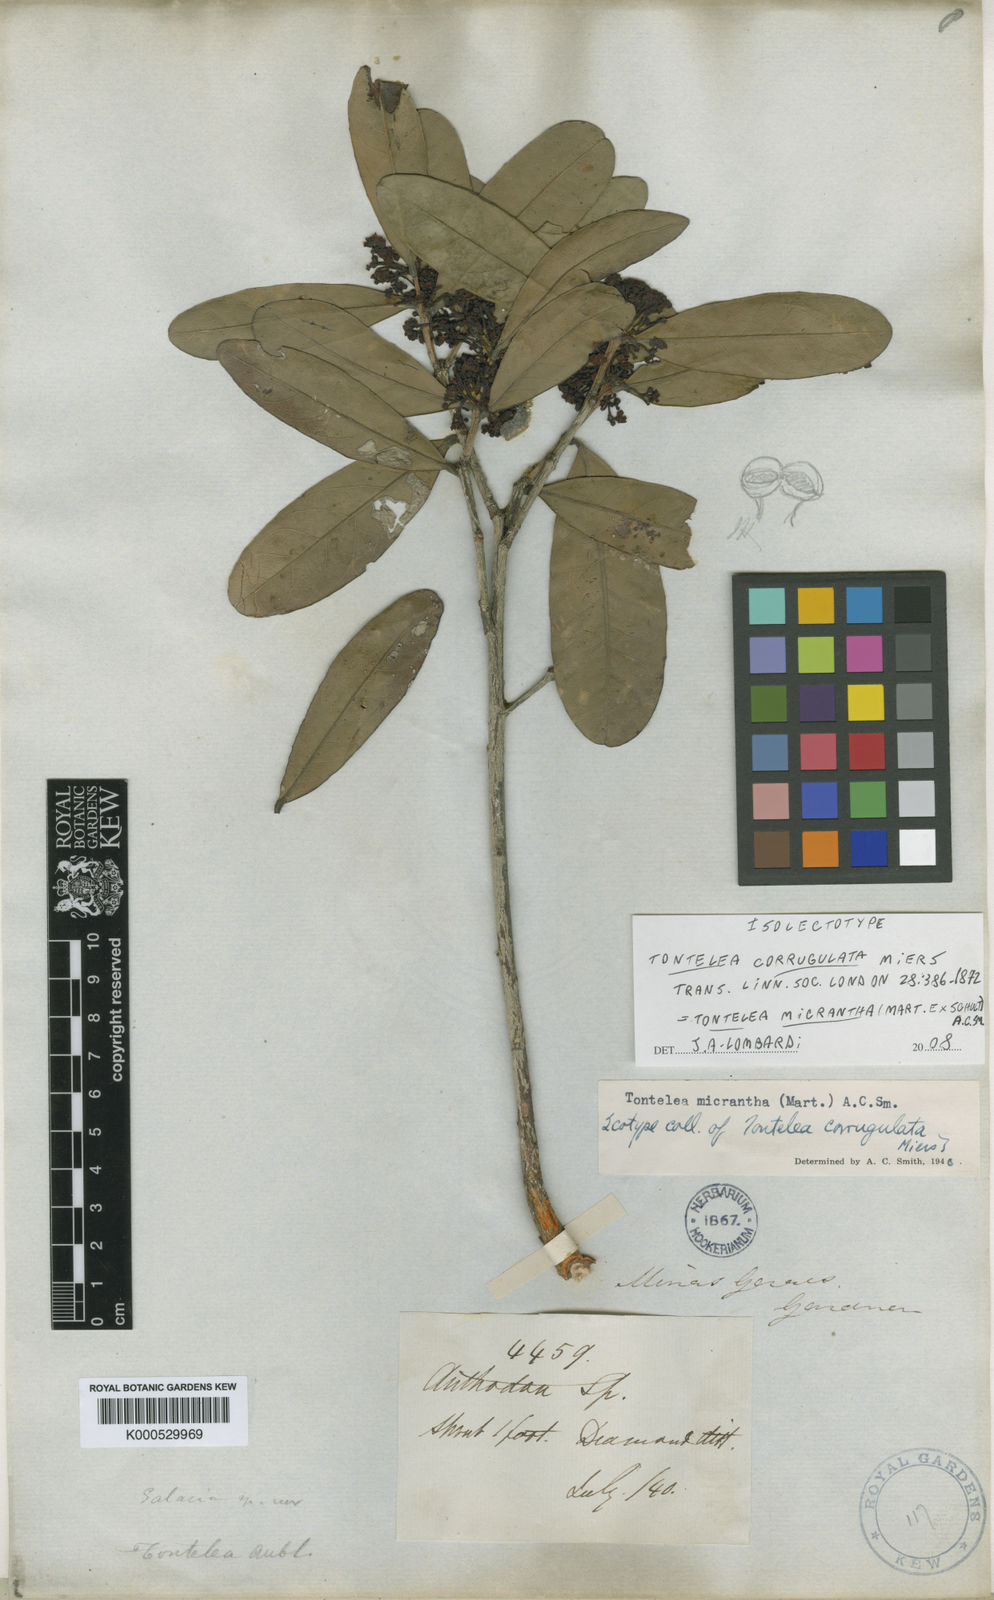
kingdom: Plantae
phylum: Tracheophyta
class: Magnoliopsida
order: Celastrales
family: Celastraceae
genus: Tontelea
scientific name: Tontelea micrantha
